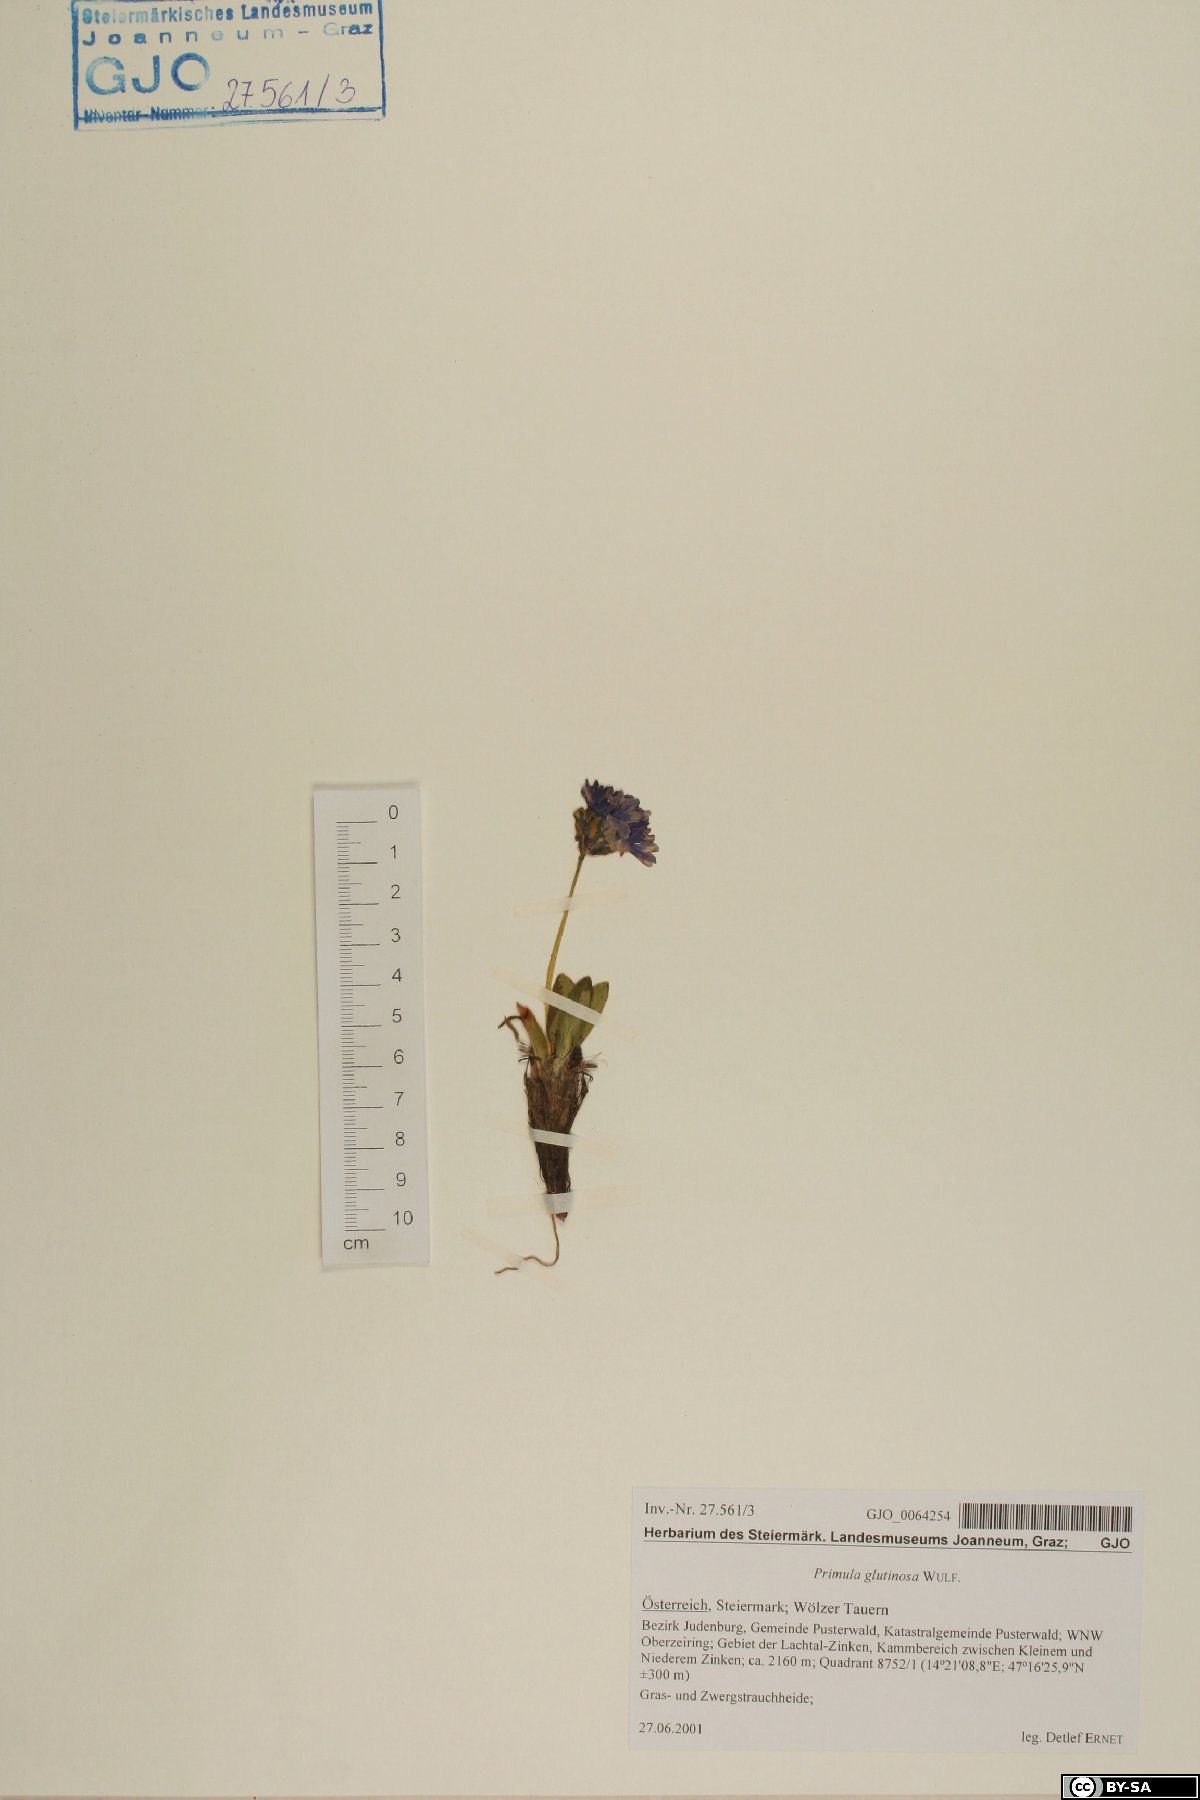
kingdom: Plantae
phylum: Tracheophyta
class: Magnoliopsida
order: Ericales
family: Primulaceae
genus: Primula
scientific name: Primula glutinosa
